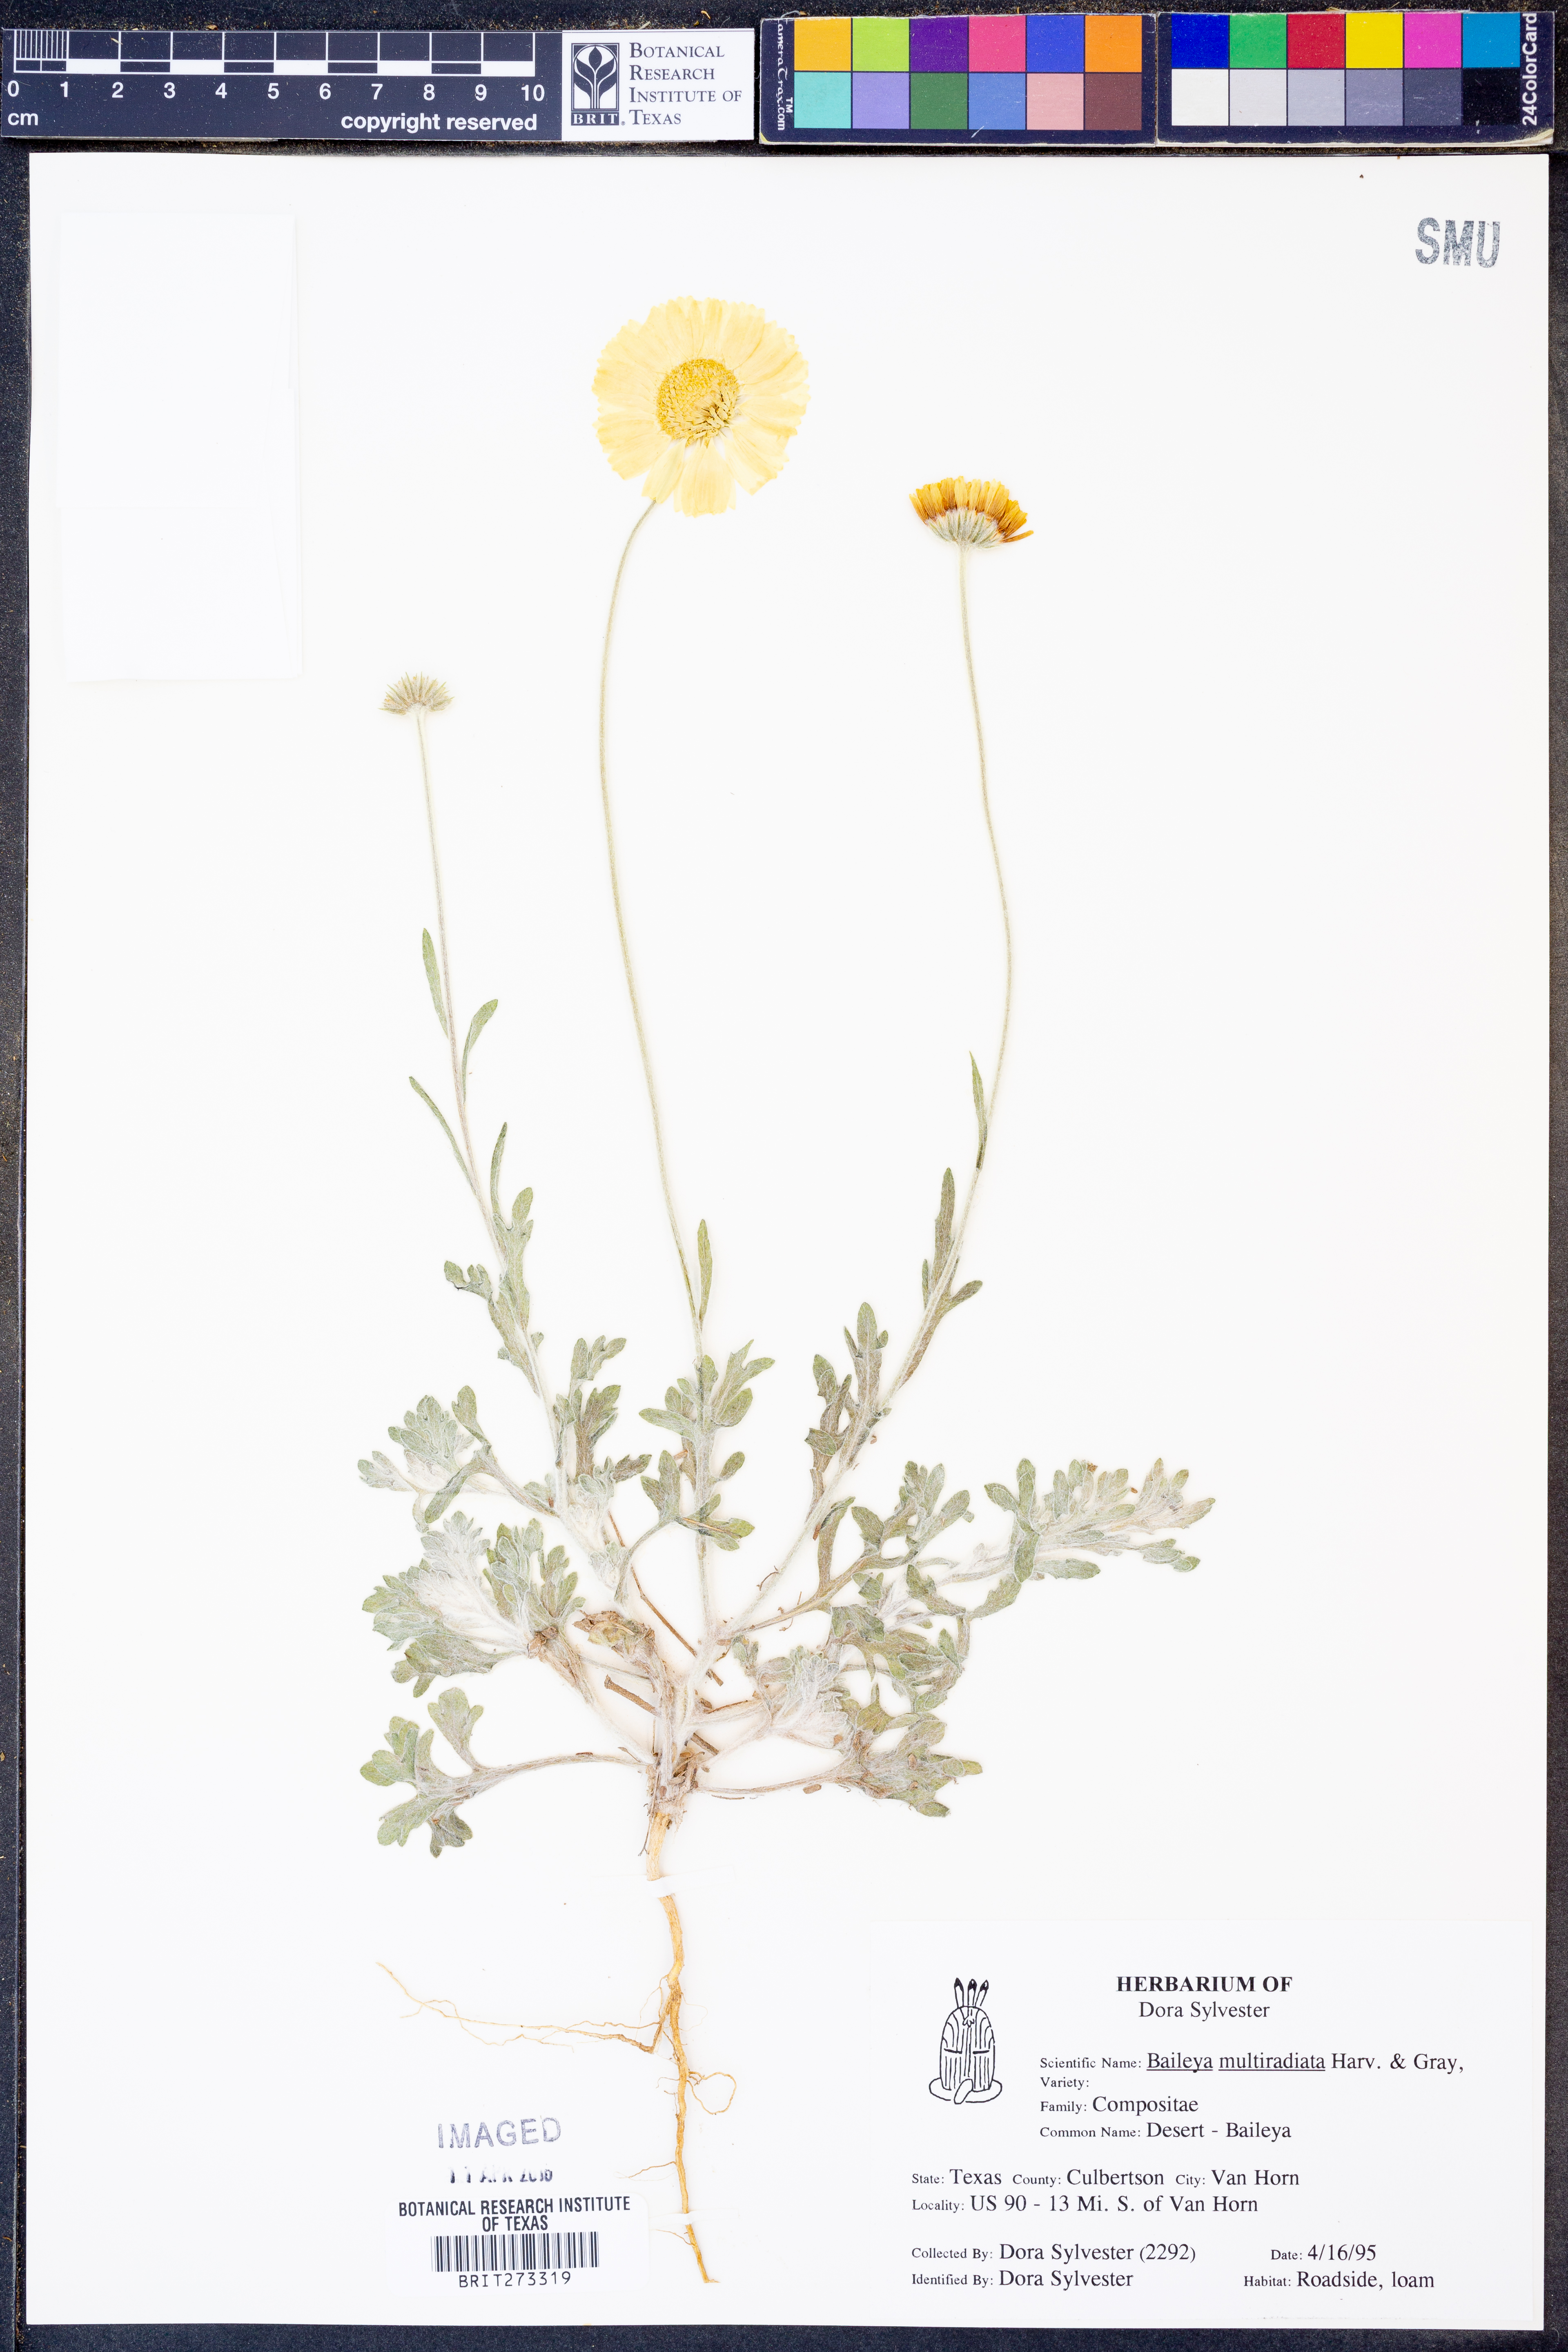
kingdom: Plantae
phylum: Tracheophyta
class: Magnoliopsida
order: Asterales
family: Asteraceae
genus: Baileya
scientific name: Baileya multiradiata
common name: Desert-marigold
